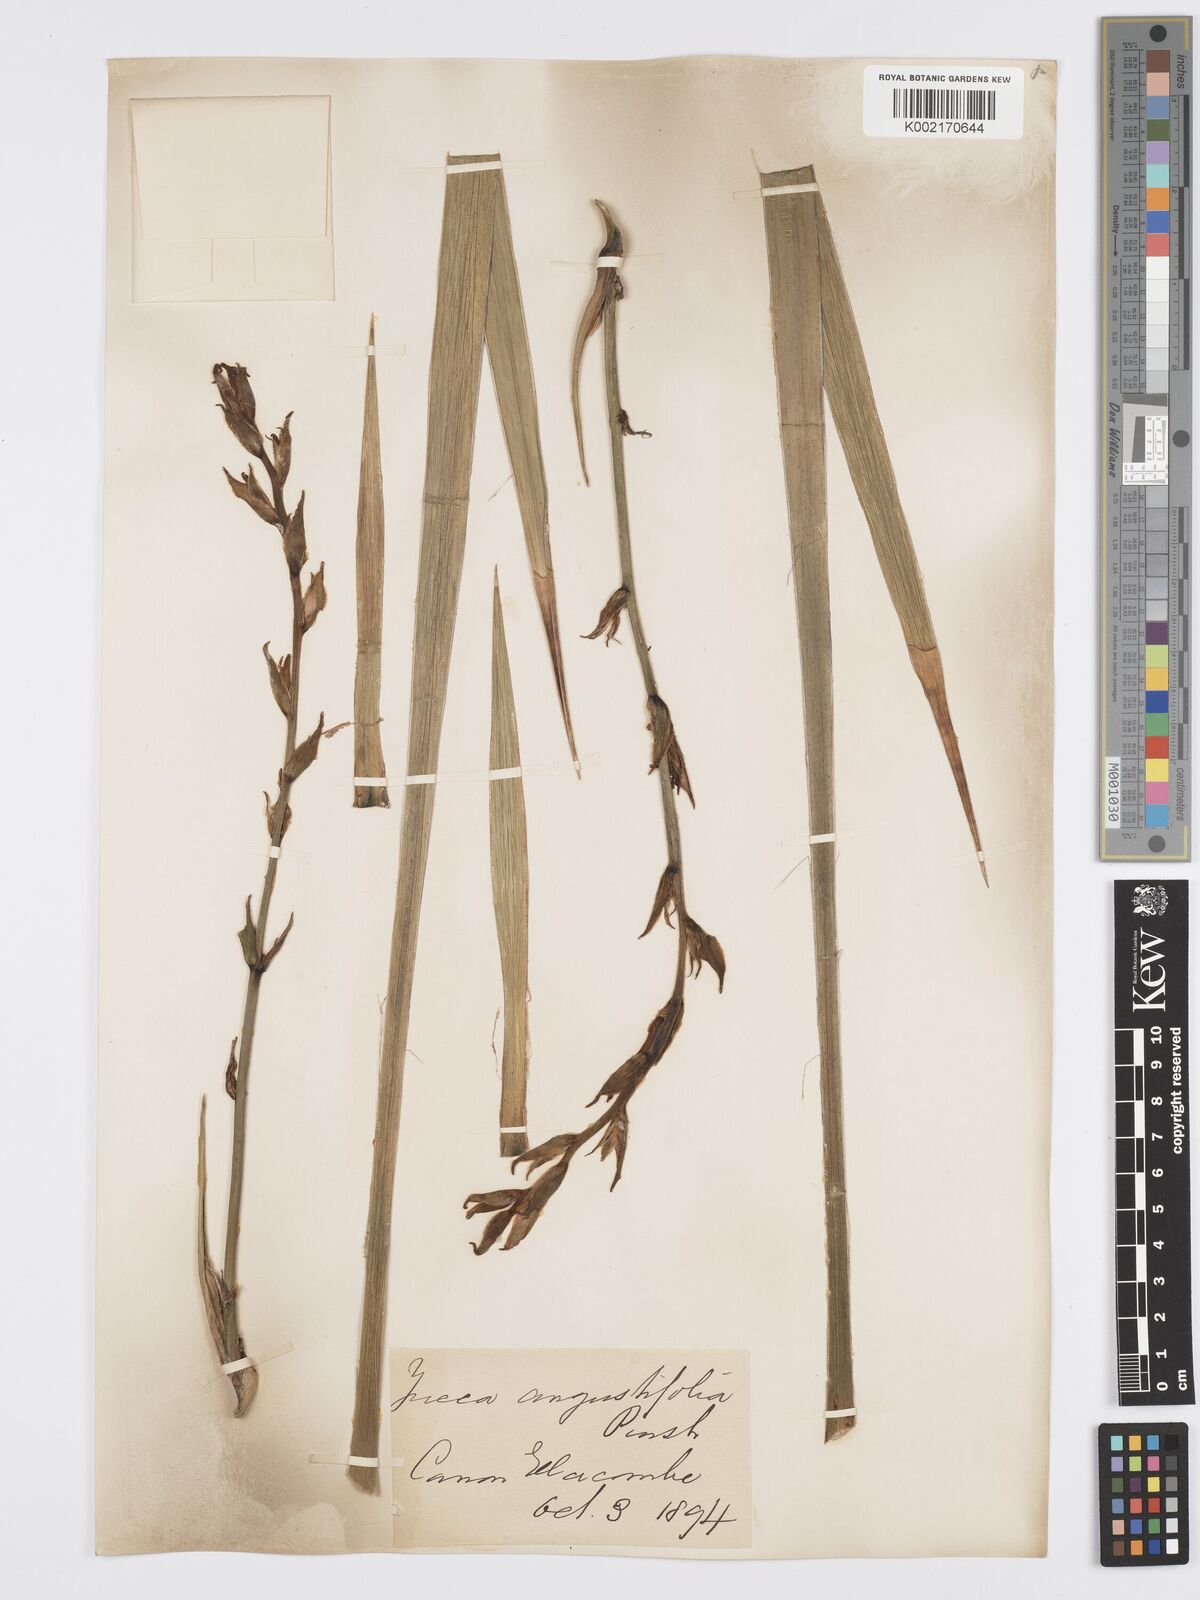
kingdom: Plantae
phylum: Tracheophyta
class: Liliopsida
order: Asparagales
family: Asparagaceae
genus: Yucca
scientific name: Yucca glauca
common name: Great plains yucca
